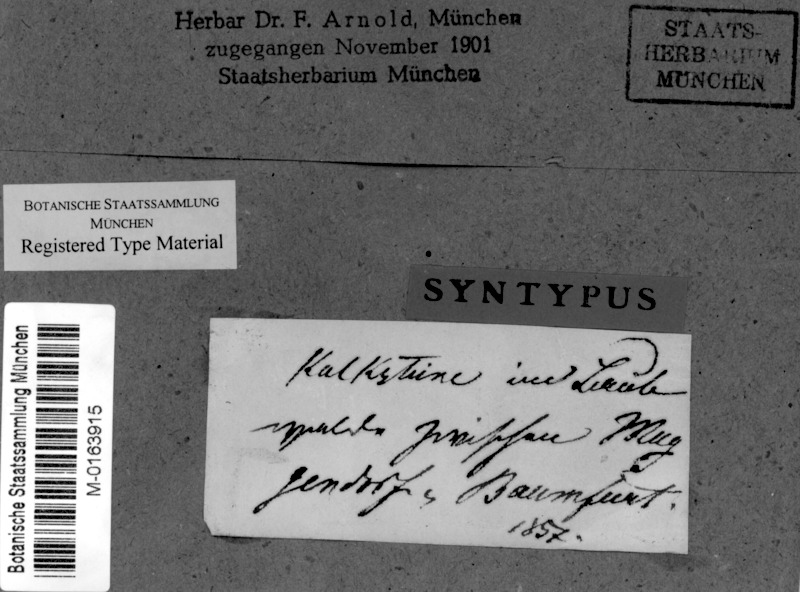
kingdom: Fungi
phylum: Ascomycota
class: Eurotiomycetes
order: Verrucariales
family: Verrucariaceae
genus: Verrucaria
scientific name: Verrucaria maculiformis
